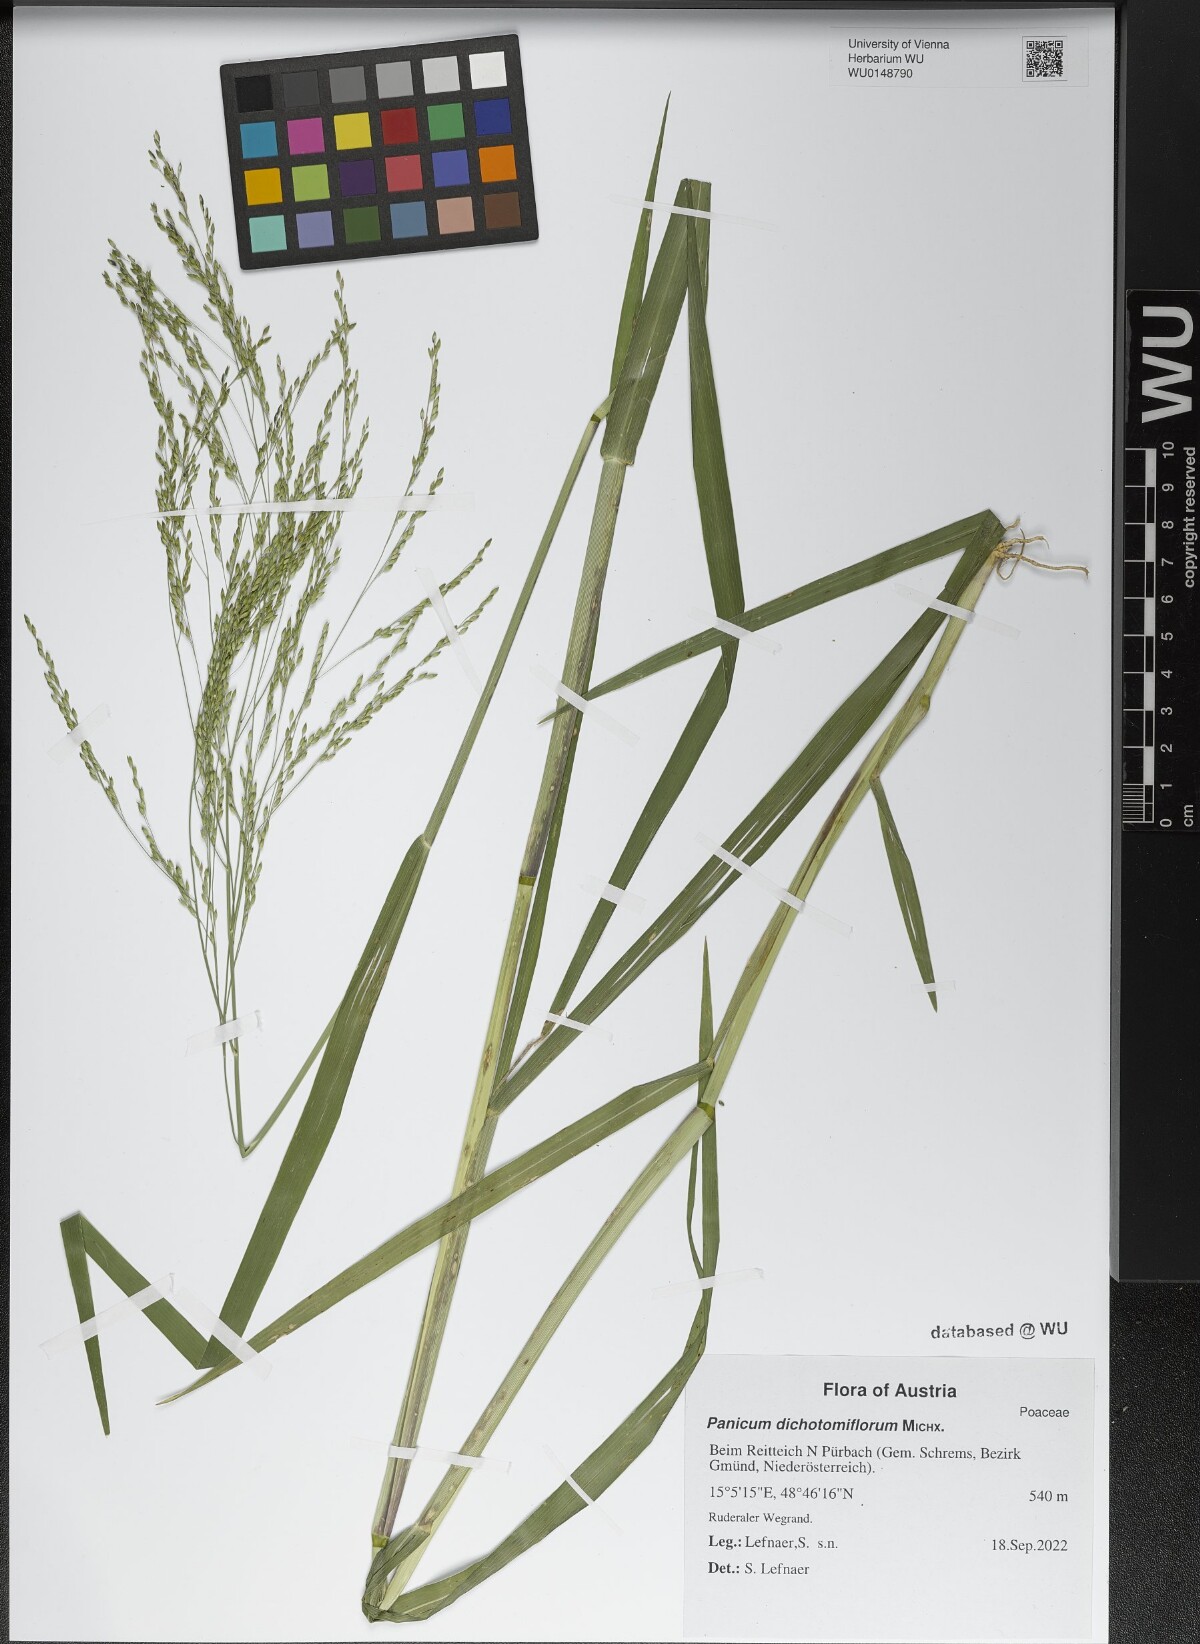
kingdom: Plantae
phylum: Tracheophyta
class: Liliopsida
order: Poales
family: Poaceae
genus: Panicum
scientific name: Panicum dichotomiflorum
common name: Autumn millet
